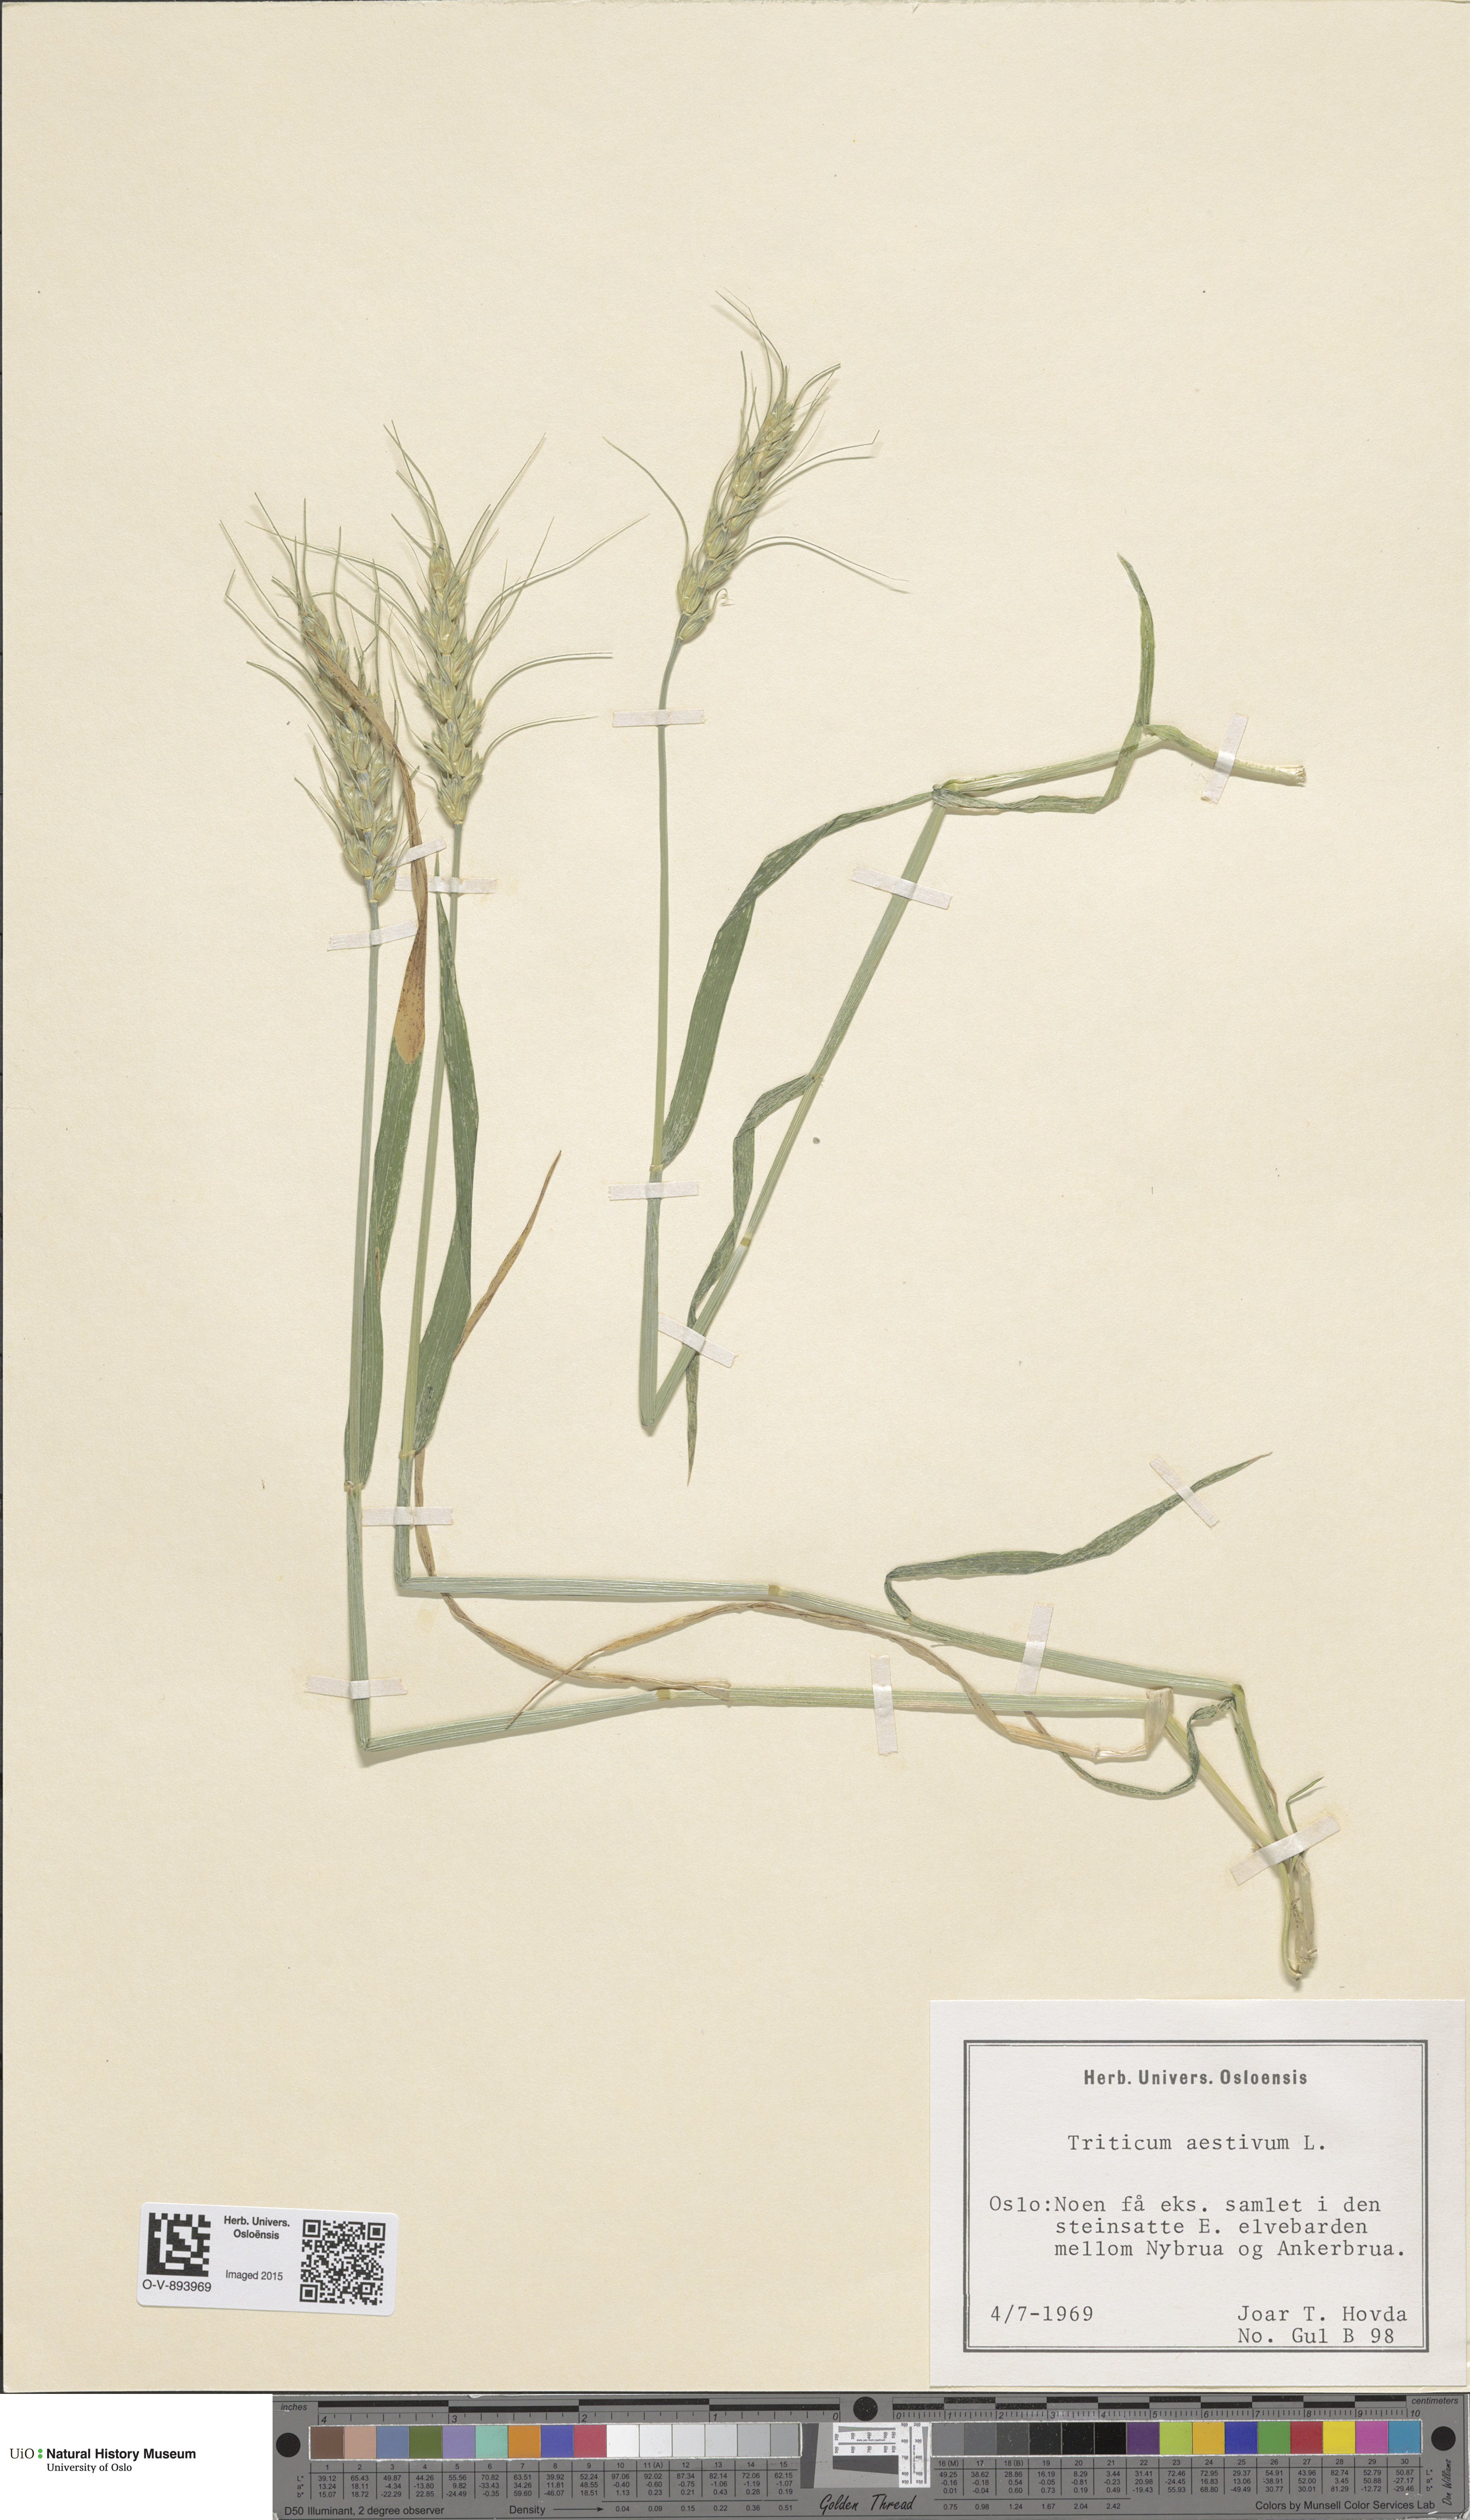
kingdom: Plantae
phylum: Tracheophyta
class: Liliopsida
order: Poales
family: Poaceae
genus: Triticum
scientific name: Triticum aestivum
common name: Common wheat
